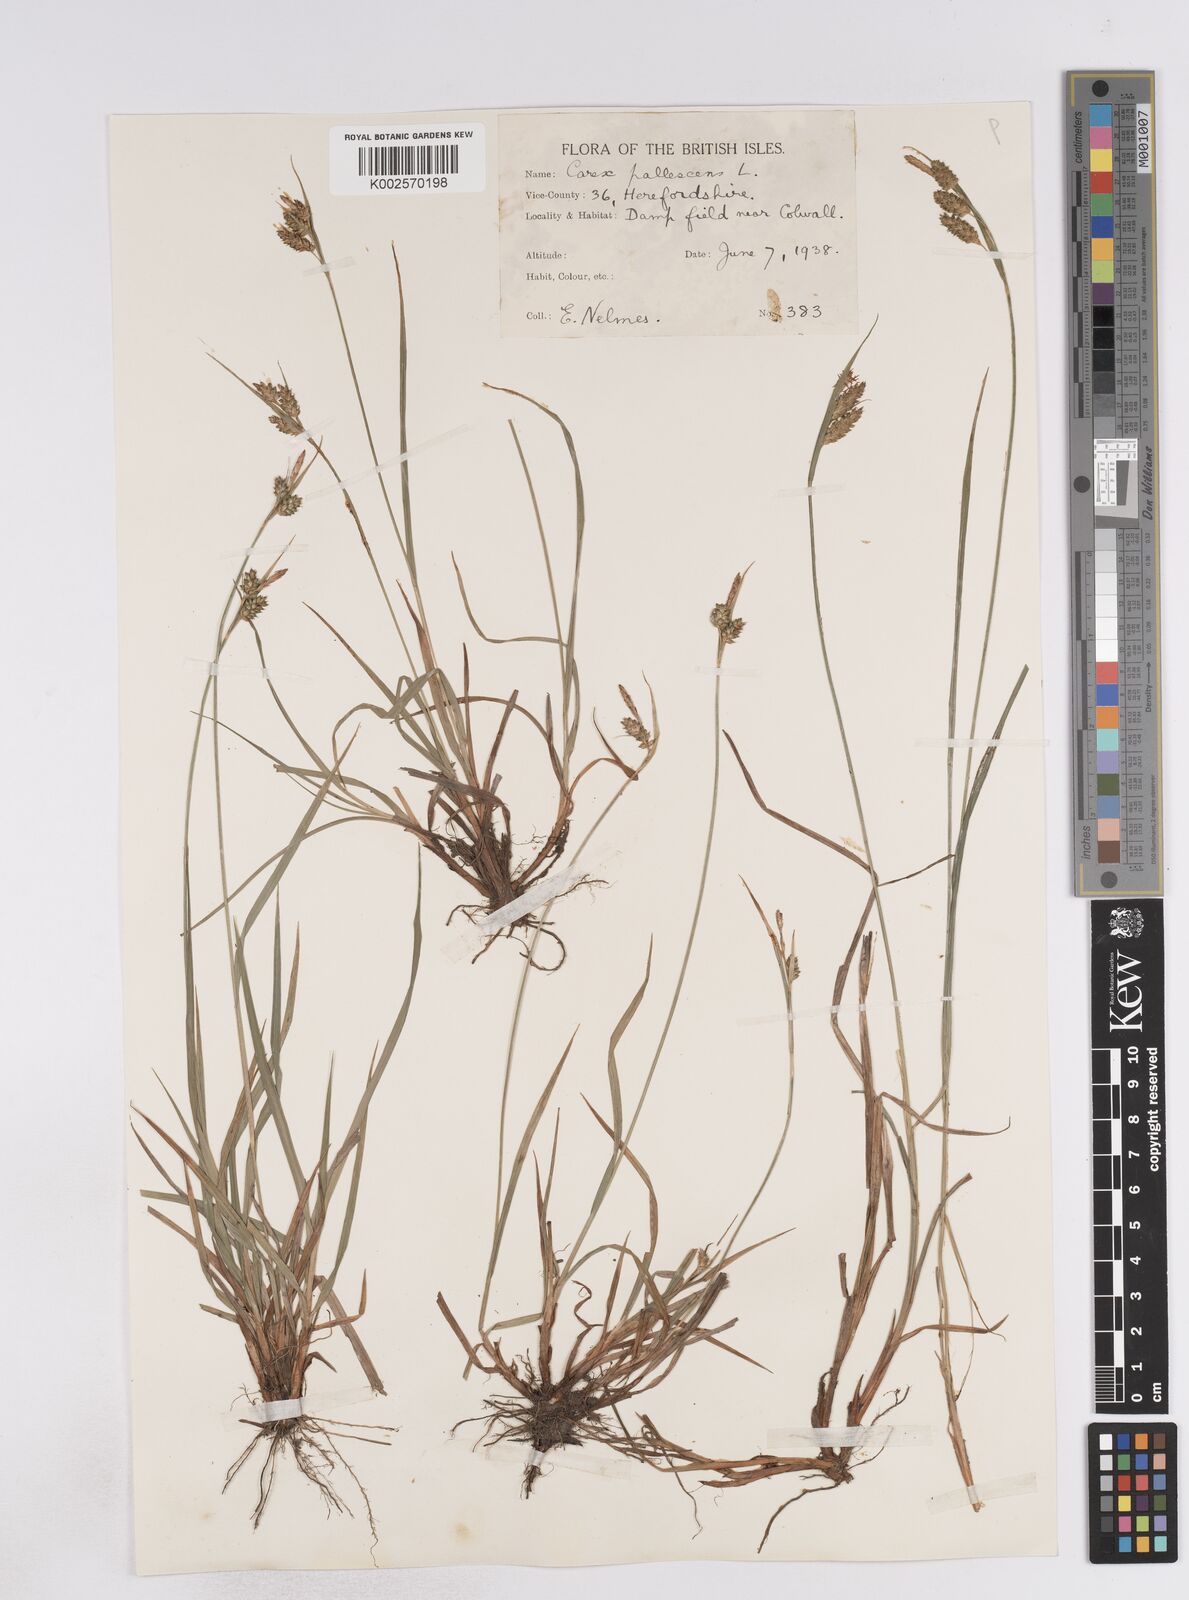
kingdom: Plantae
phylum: Tracheophyta
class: Liliopsida
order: Poales
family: Cyperaceae
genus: Carex
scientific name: Carex pallescens
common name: Pale sedge
